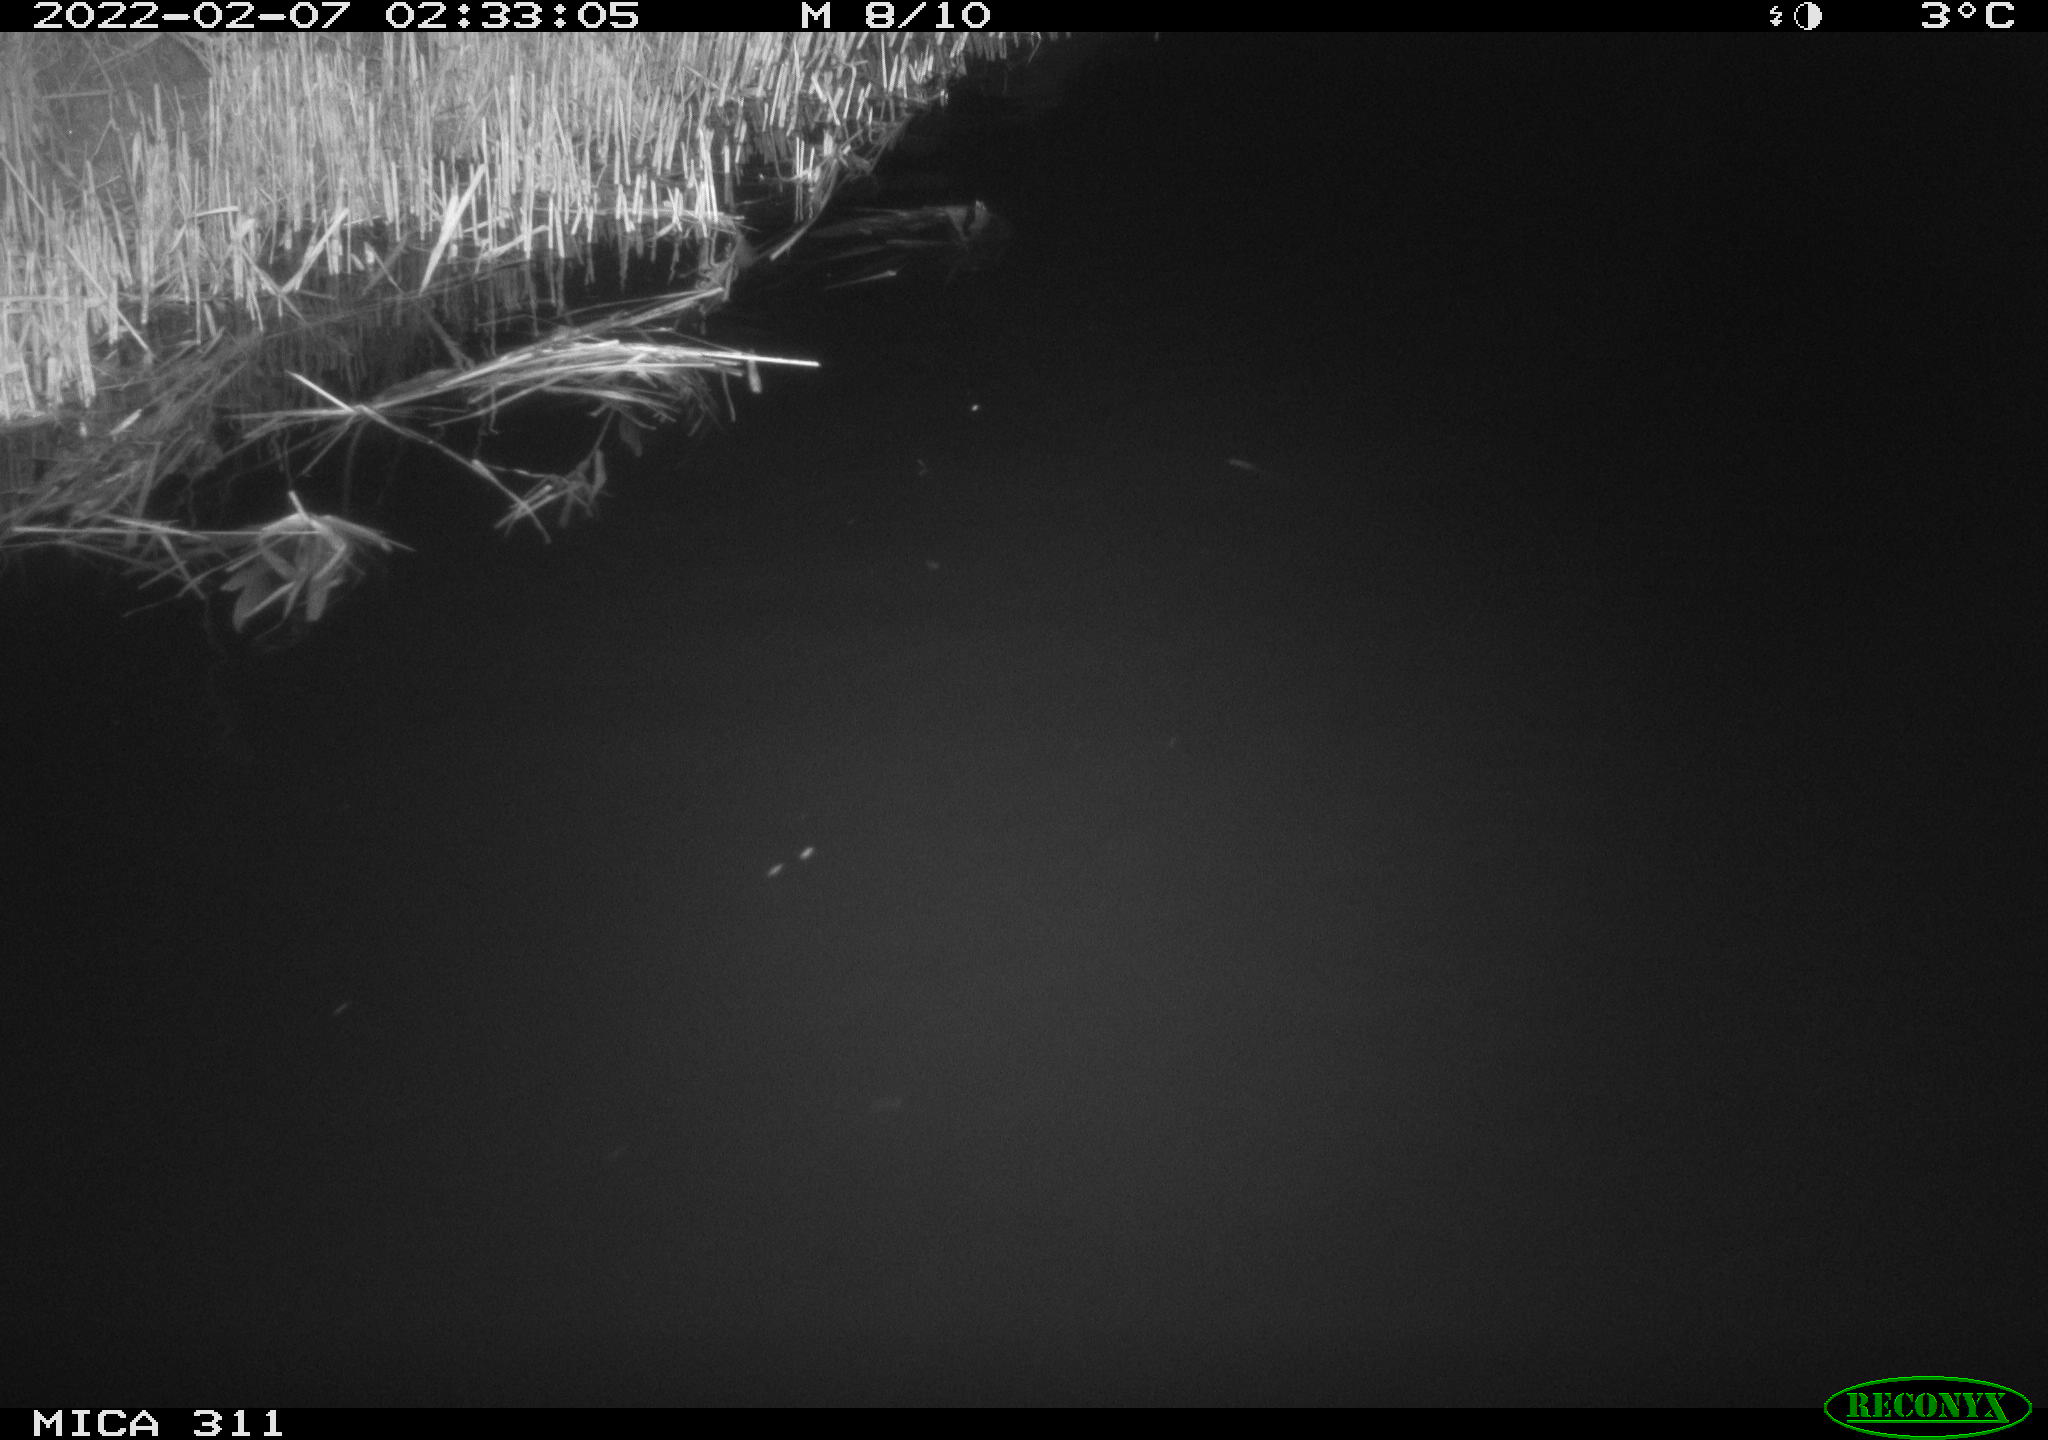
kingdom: Animalia
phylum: Chordata
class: Mammalia
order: Rodentia
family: Cricetidae
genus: Ondatra
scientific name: Ondatra zibethicus
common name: Muskrat
